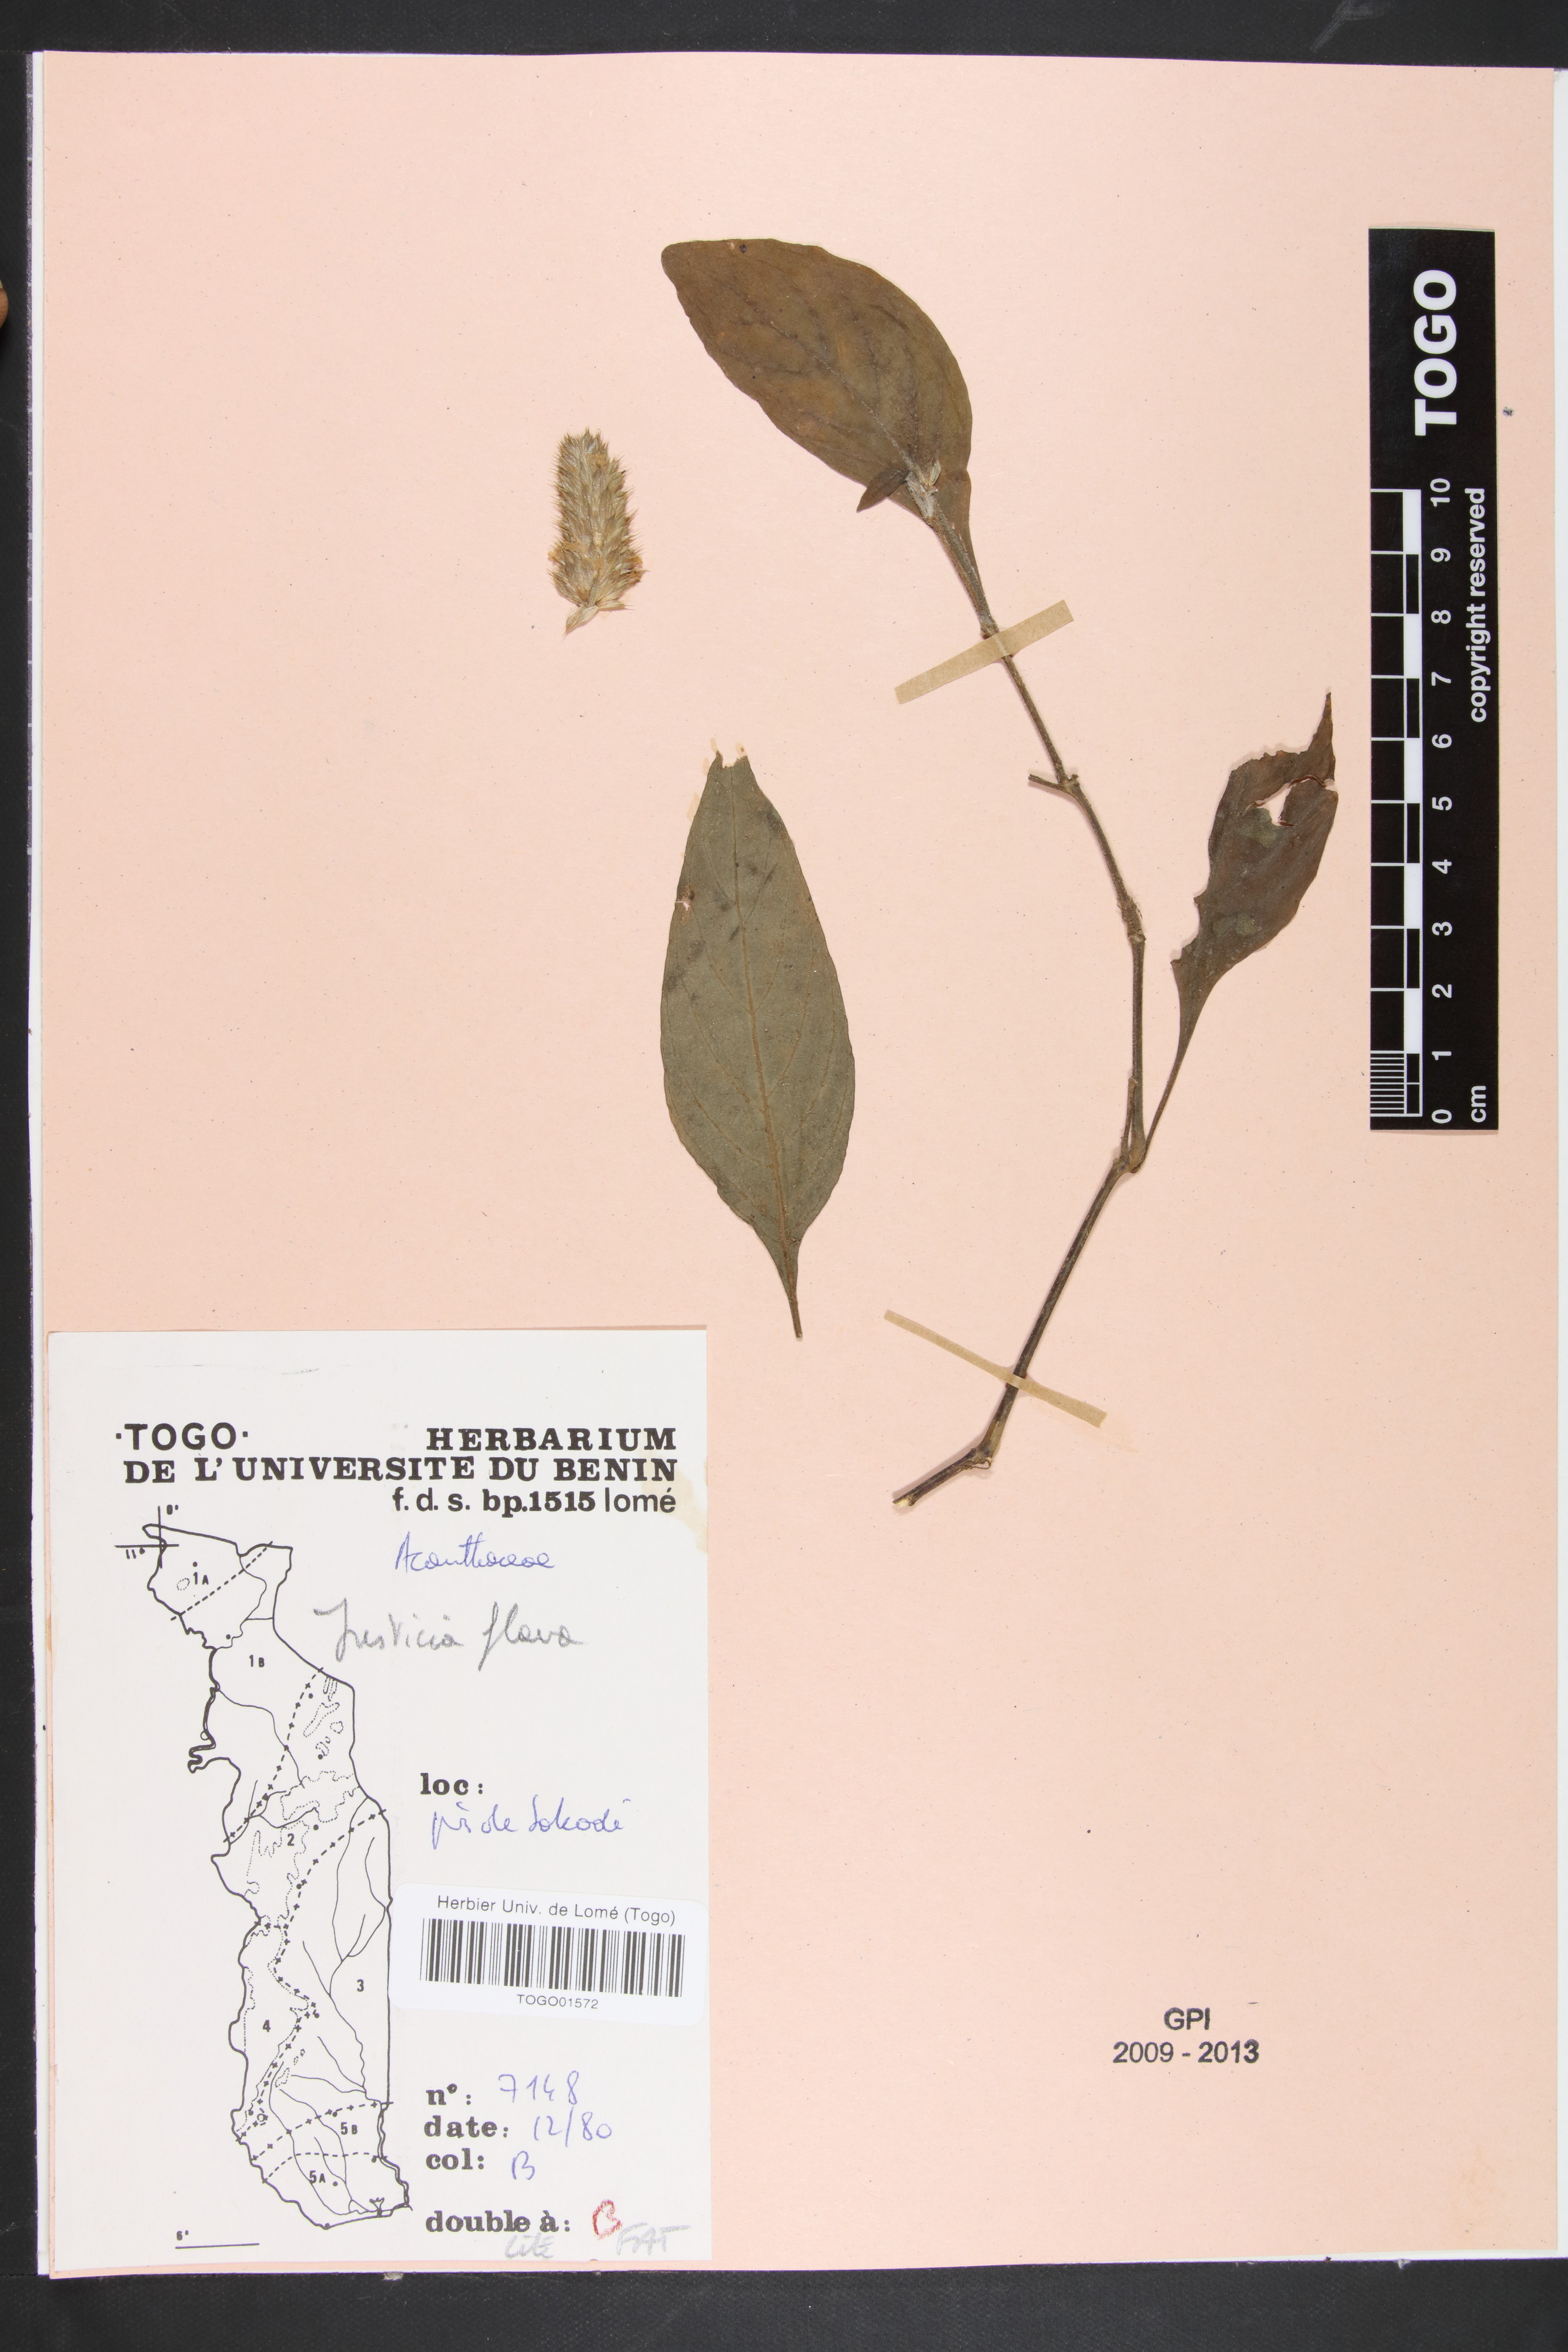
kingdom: Plantae
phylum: Tracheophyta
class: Magnoliopsida
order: Lamiales
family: Acanthaceae
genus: Justicia
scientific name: Justicia flava
